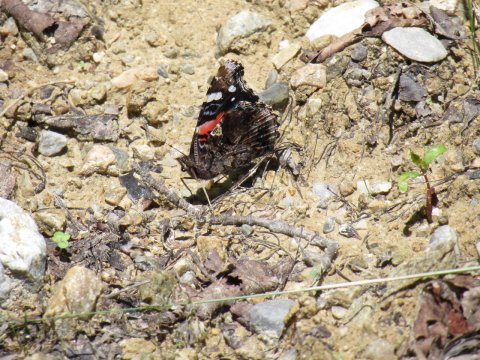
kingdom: Animalia
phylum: Arthropoda
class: Insecta
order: Lepidoptera
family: Nymphalidae
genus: Vanessa
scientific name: Vanessa atalanta
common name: Red Admiral
